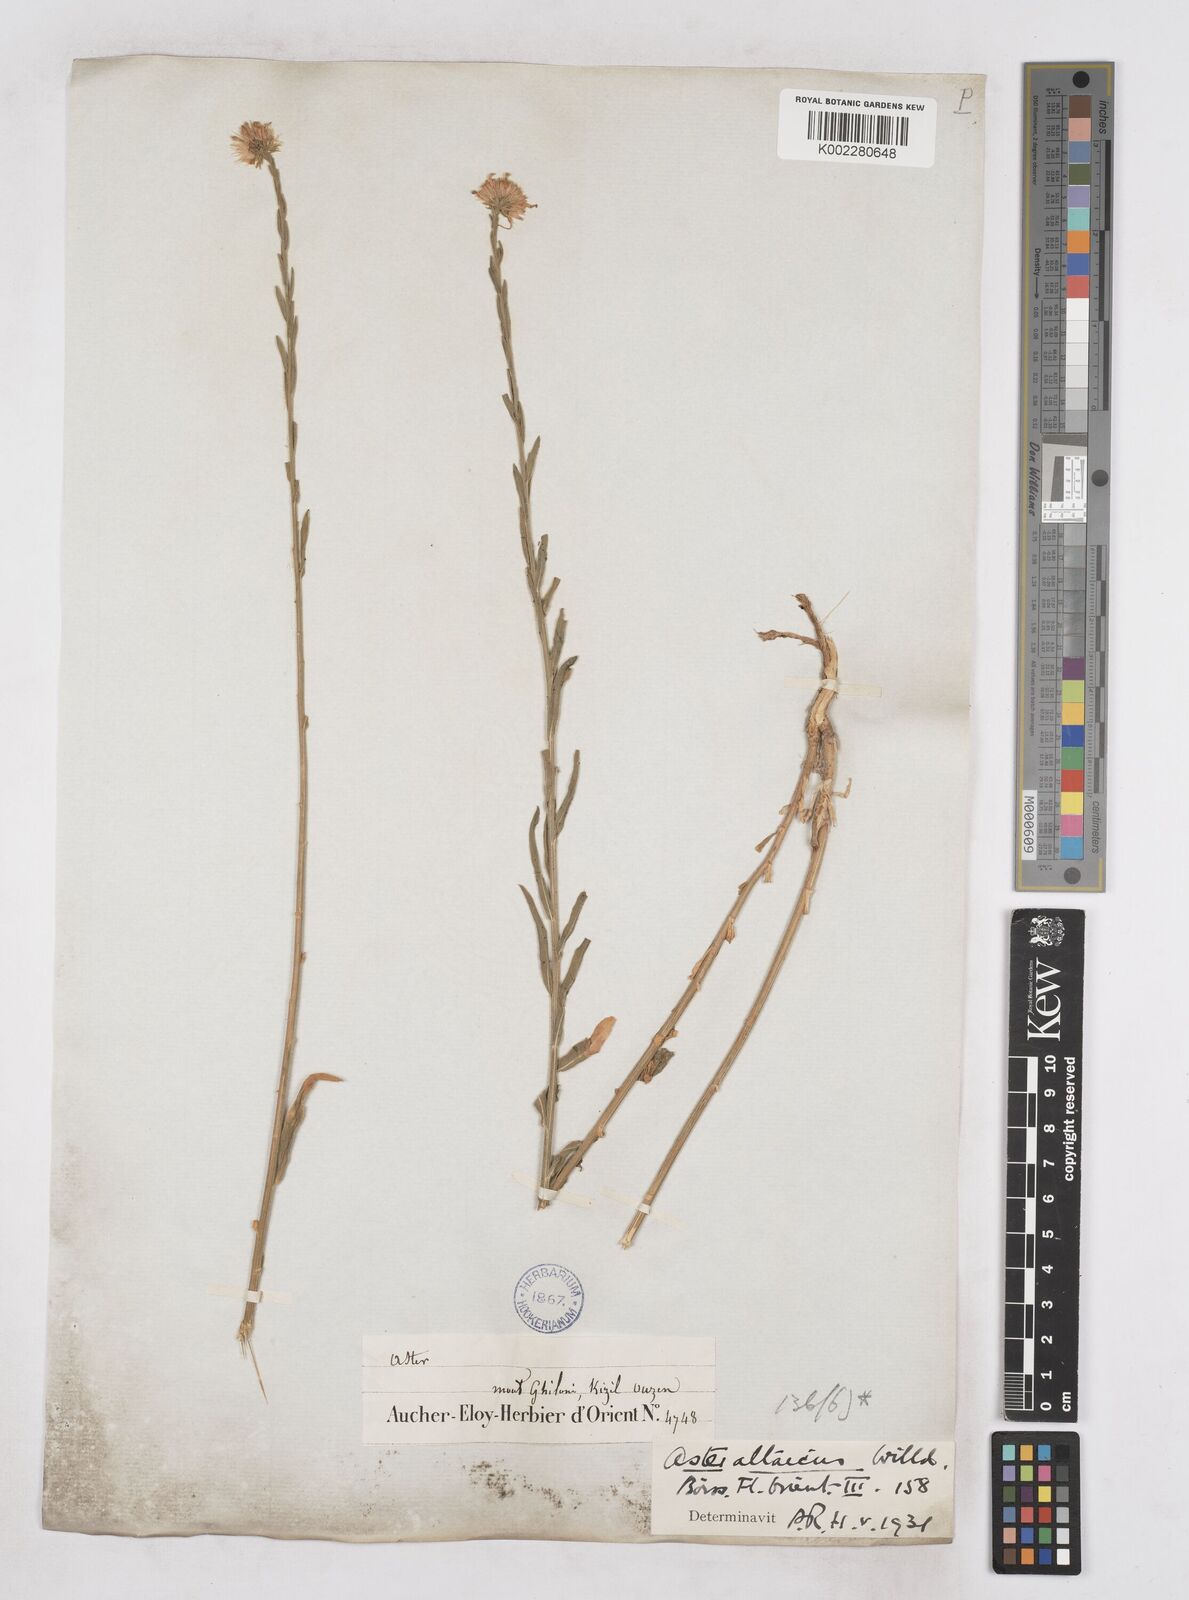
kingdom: Plantae
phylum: Tracheophyta
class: Magnoliopsida
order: Asterales
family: Asteraceae
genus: Heteropappus
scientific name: Heteropappus altaicus
